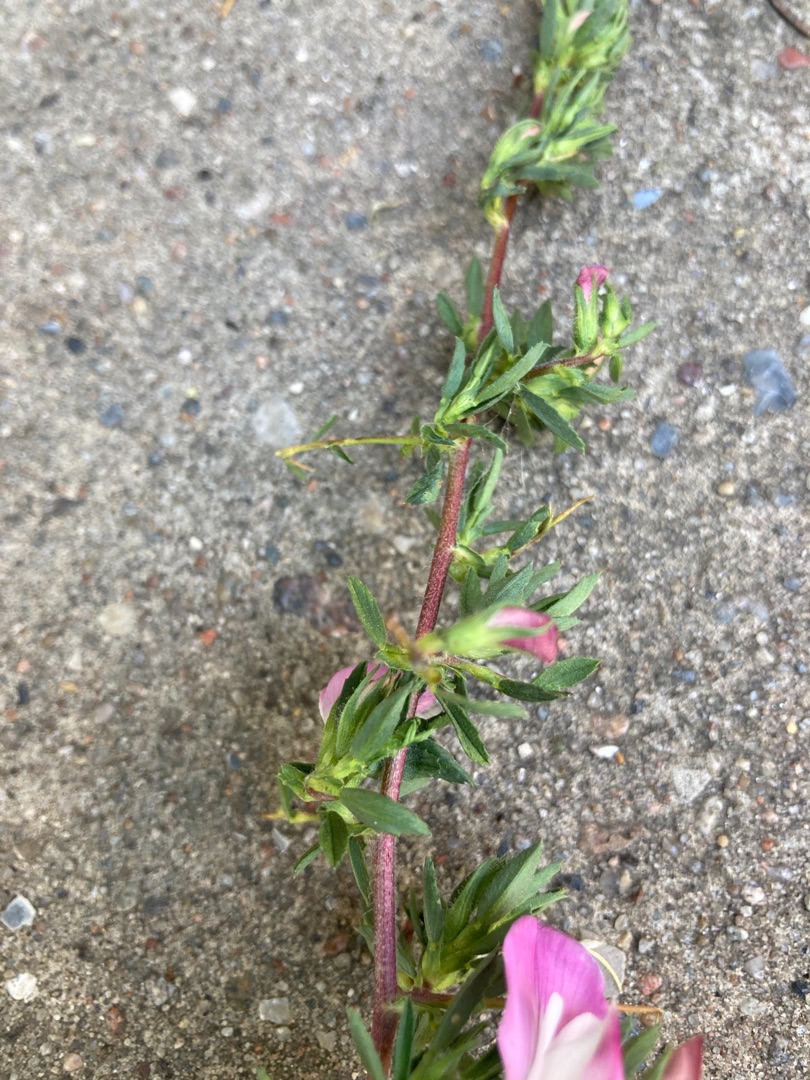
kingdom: Plantae
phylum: Tracheophyta
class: Magnoliopsida
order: Fabales
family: Fabaceae
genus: Ononis
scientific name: Ononis spinosa
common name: Strand-krageklo
